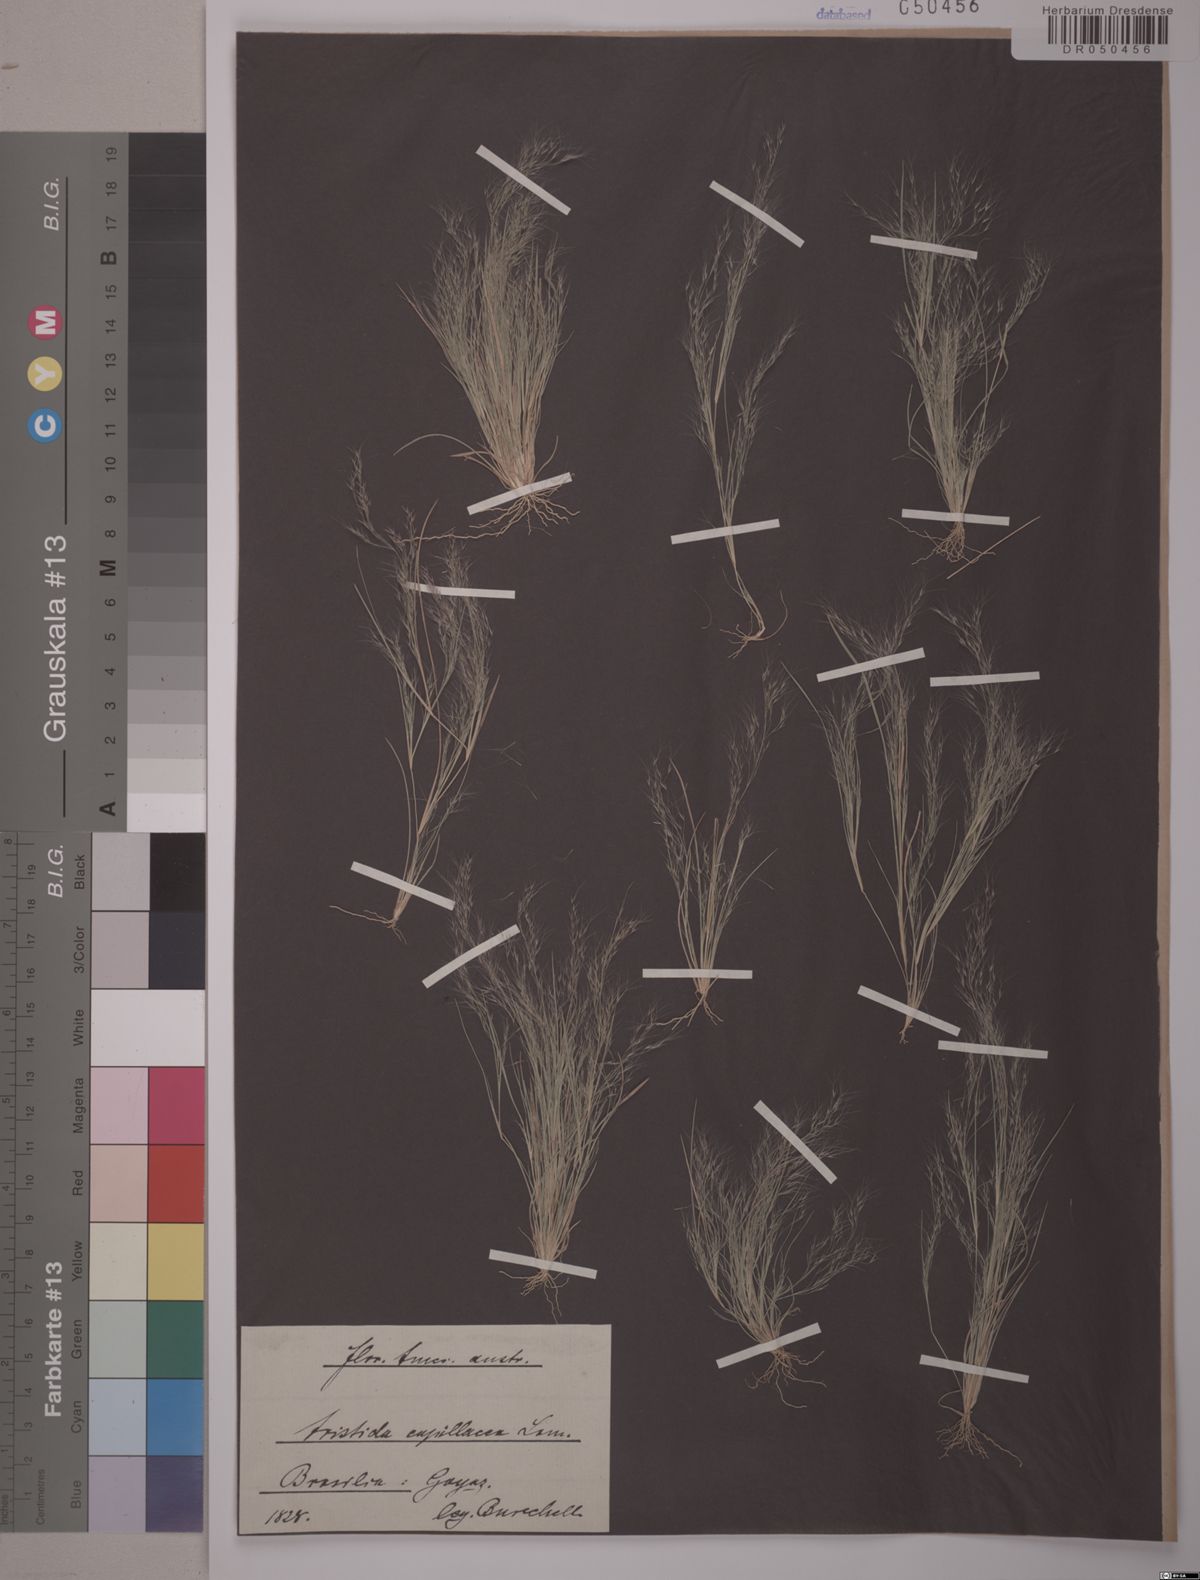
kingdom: Plantae
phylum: Tracheophyta
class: Liliopsida
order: Poales
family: Poaceae
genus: Aristida
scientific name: Aristida capillacea
